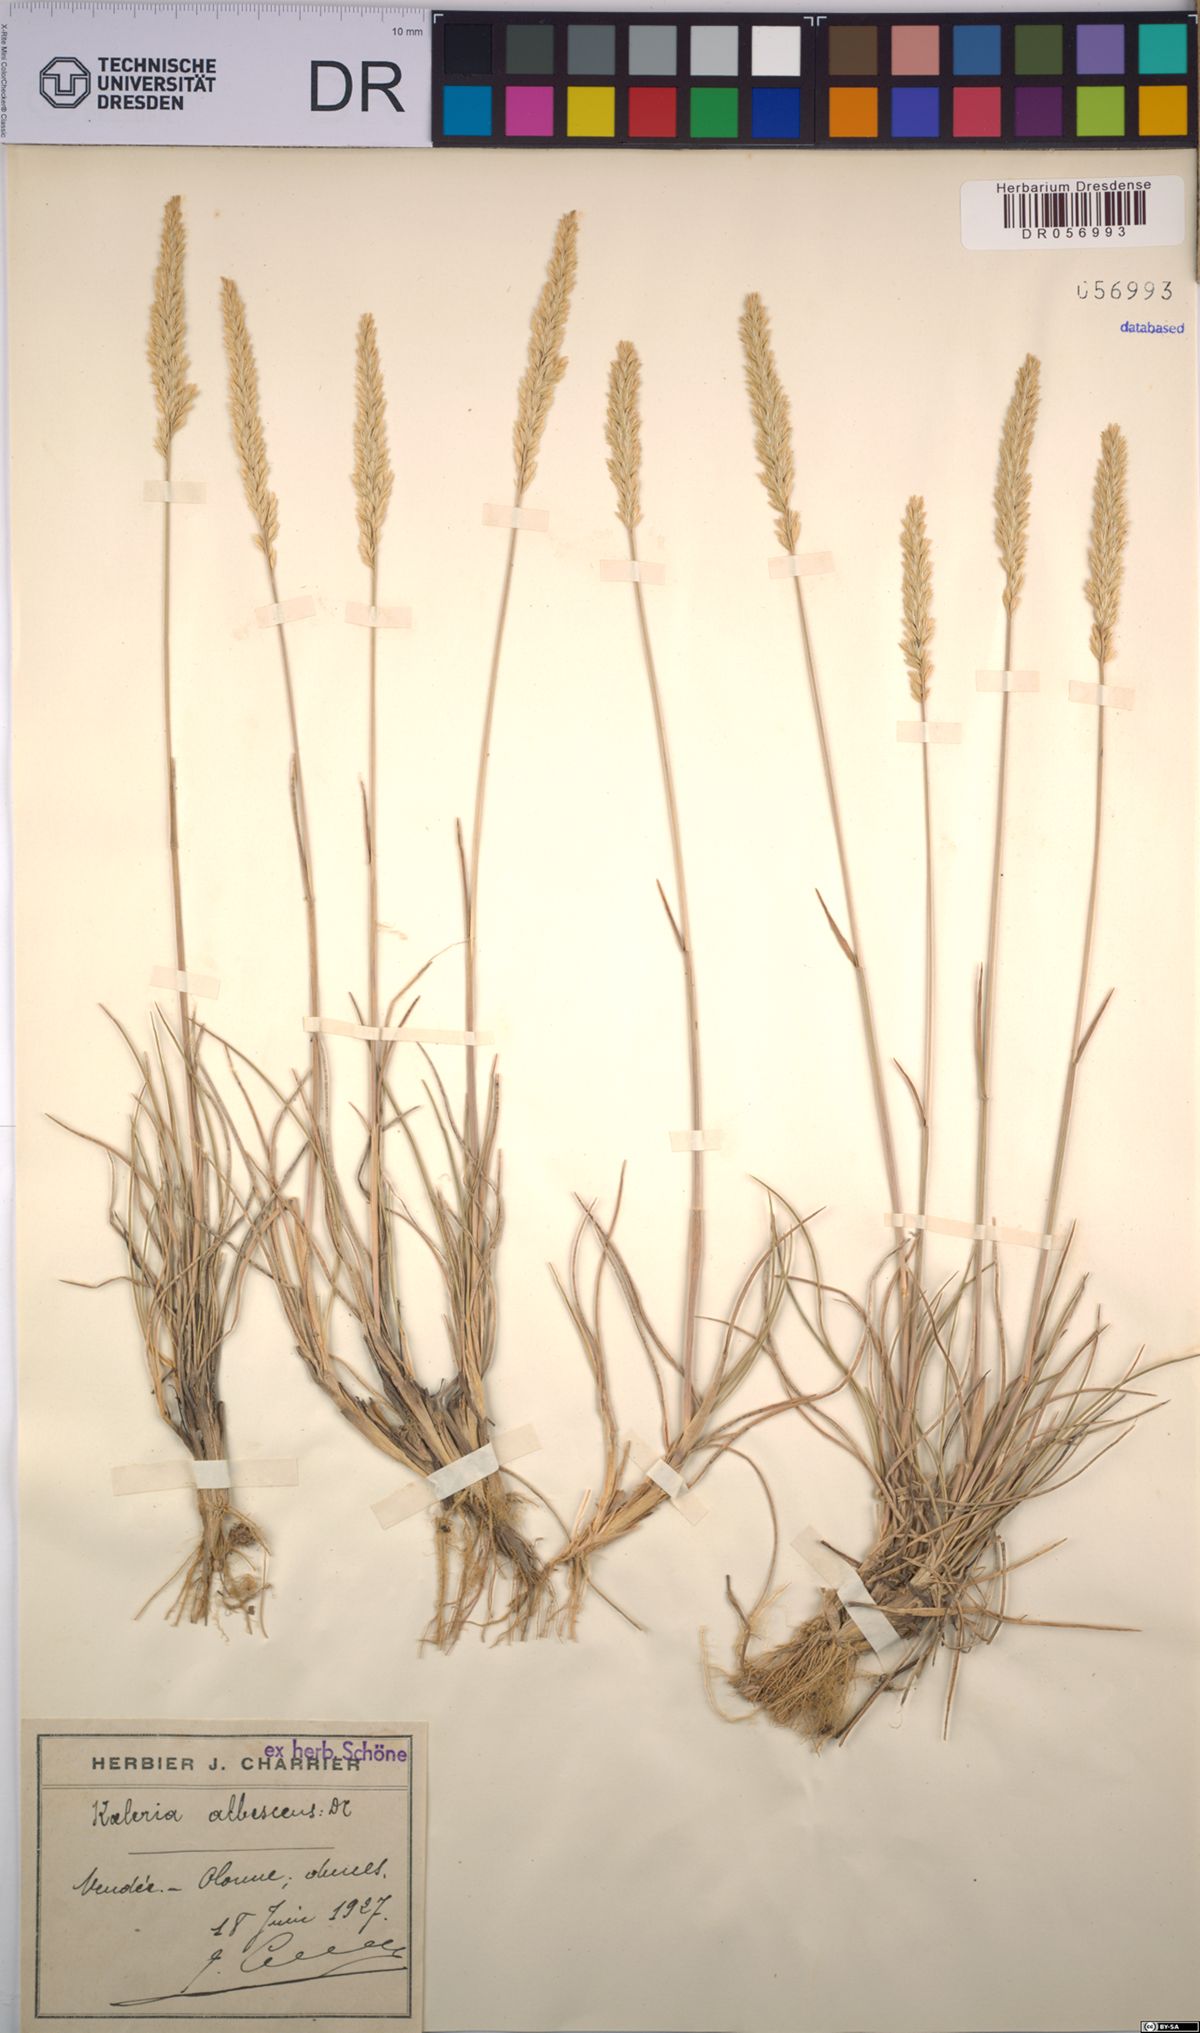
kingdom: Plantae
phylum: Tracheophyta
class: Liliopsida
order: Poales
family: Poaceae
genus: Koeleria
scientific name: Koeleria pyramidata
